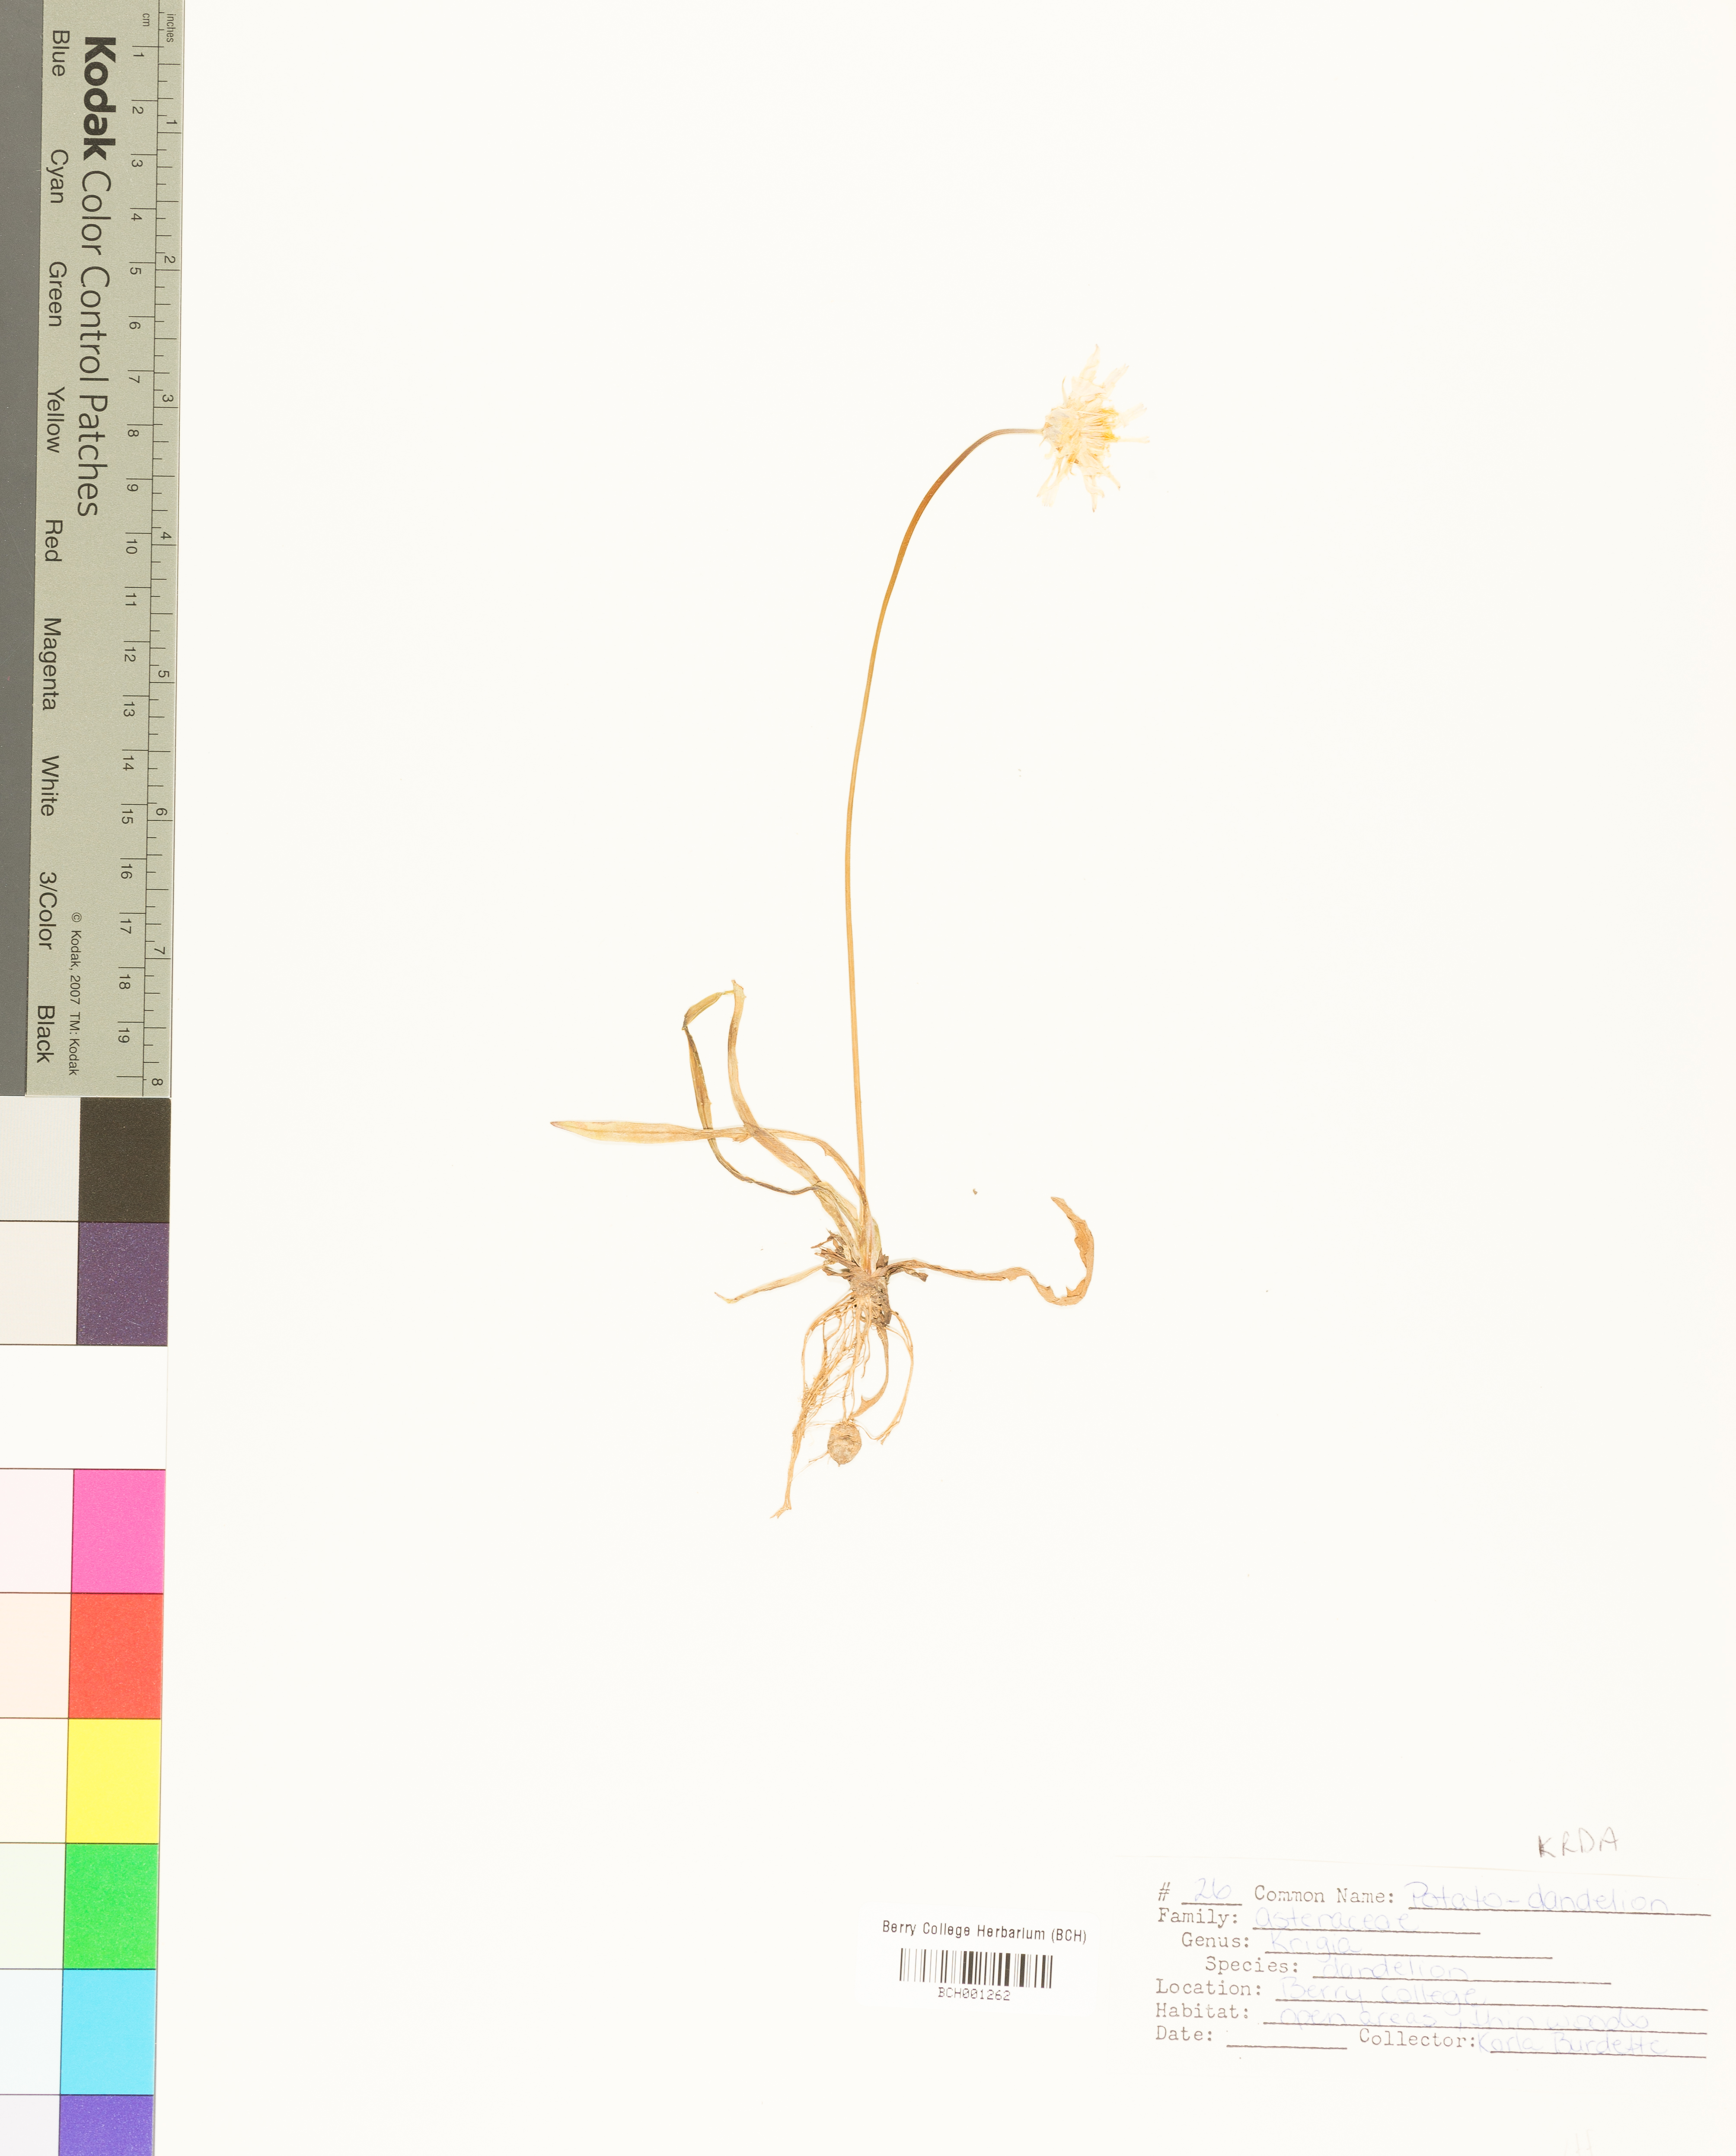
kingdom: Plantae
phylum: Tracheophyta
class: Magnoliopsida
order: Asterales
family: Asteraceae
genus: Krigia
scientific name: Krigia dandelion
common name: Colonial dwarf-dandelion
